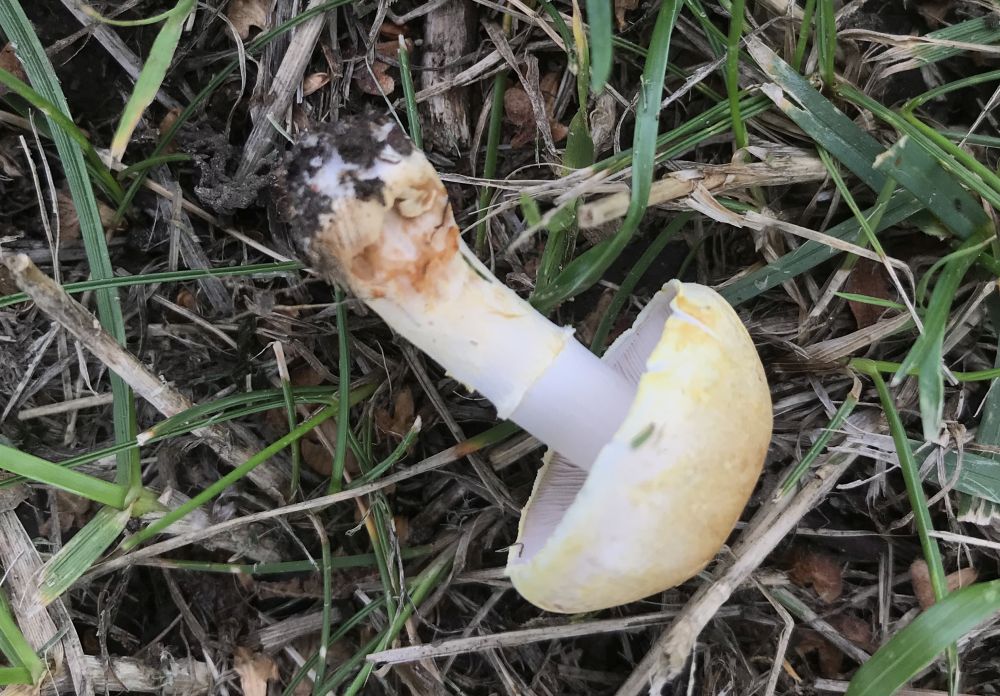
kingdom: Fungi
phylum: Basidiomycota
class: Agaricomycetes
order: Agaricales
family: Hymenogastraceae
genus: Psilocybe
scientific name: Psilocybe coronilla
